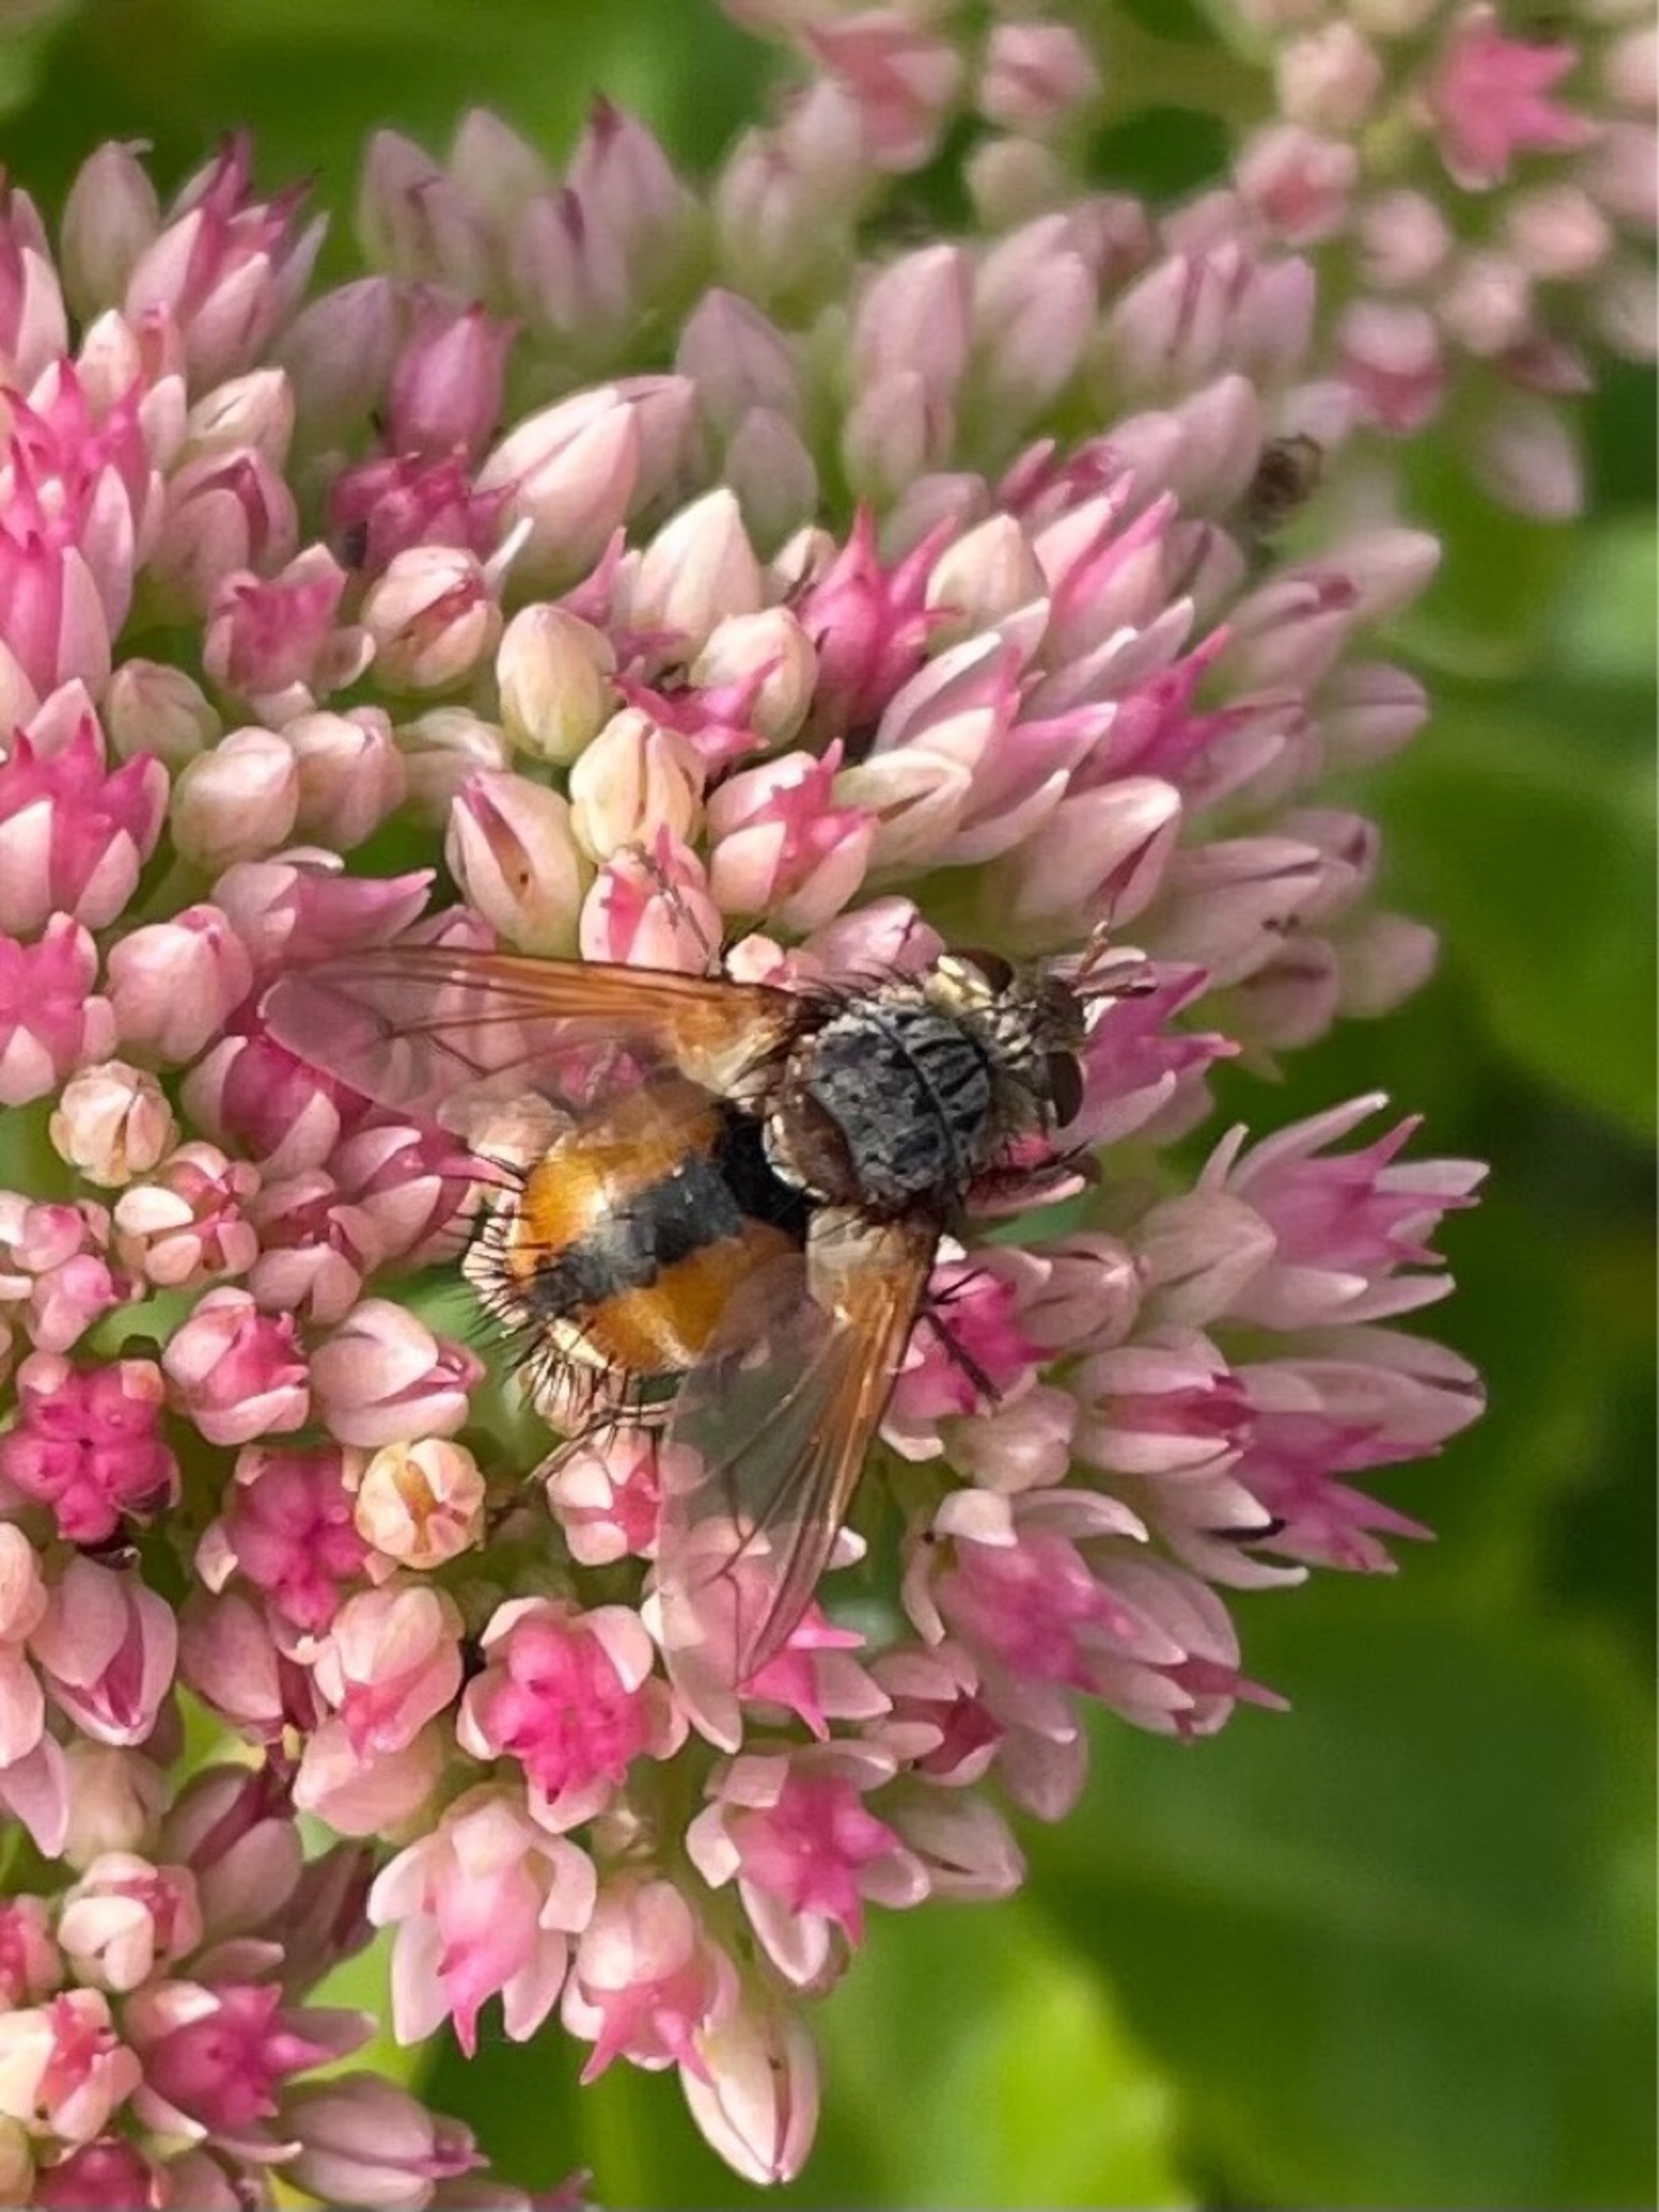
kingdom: Animalia
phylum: Arthropoda
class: Insecta
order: Diptera
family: Tachinidae
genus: Tachina
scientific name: Tachina fera
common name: Mellemfluen oskar
